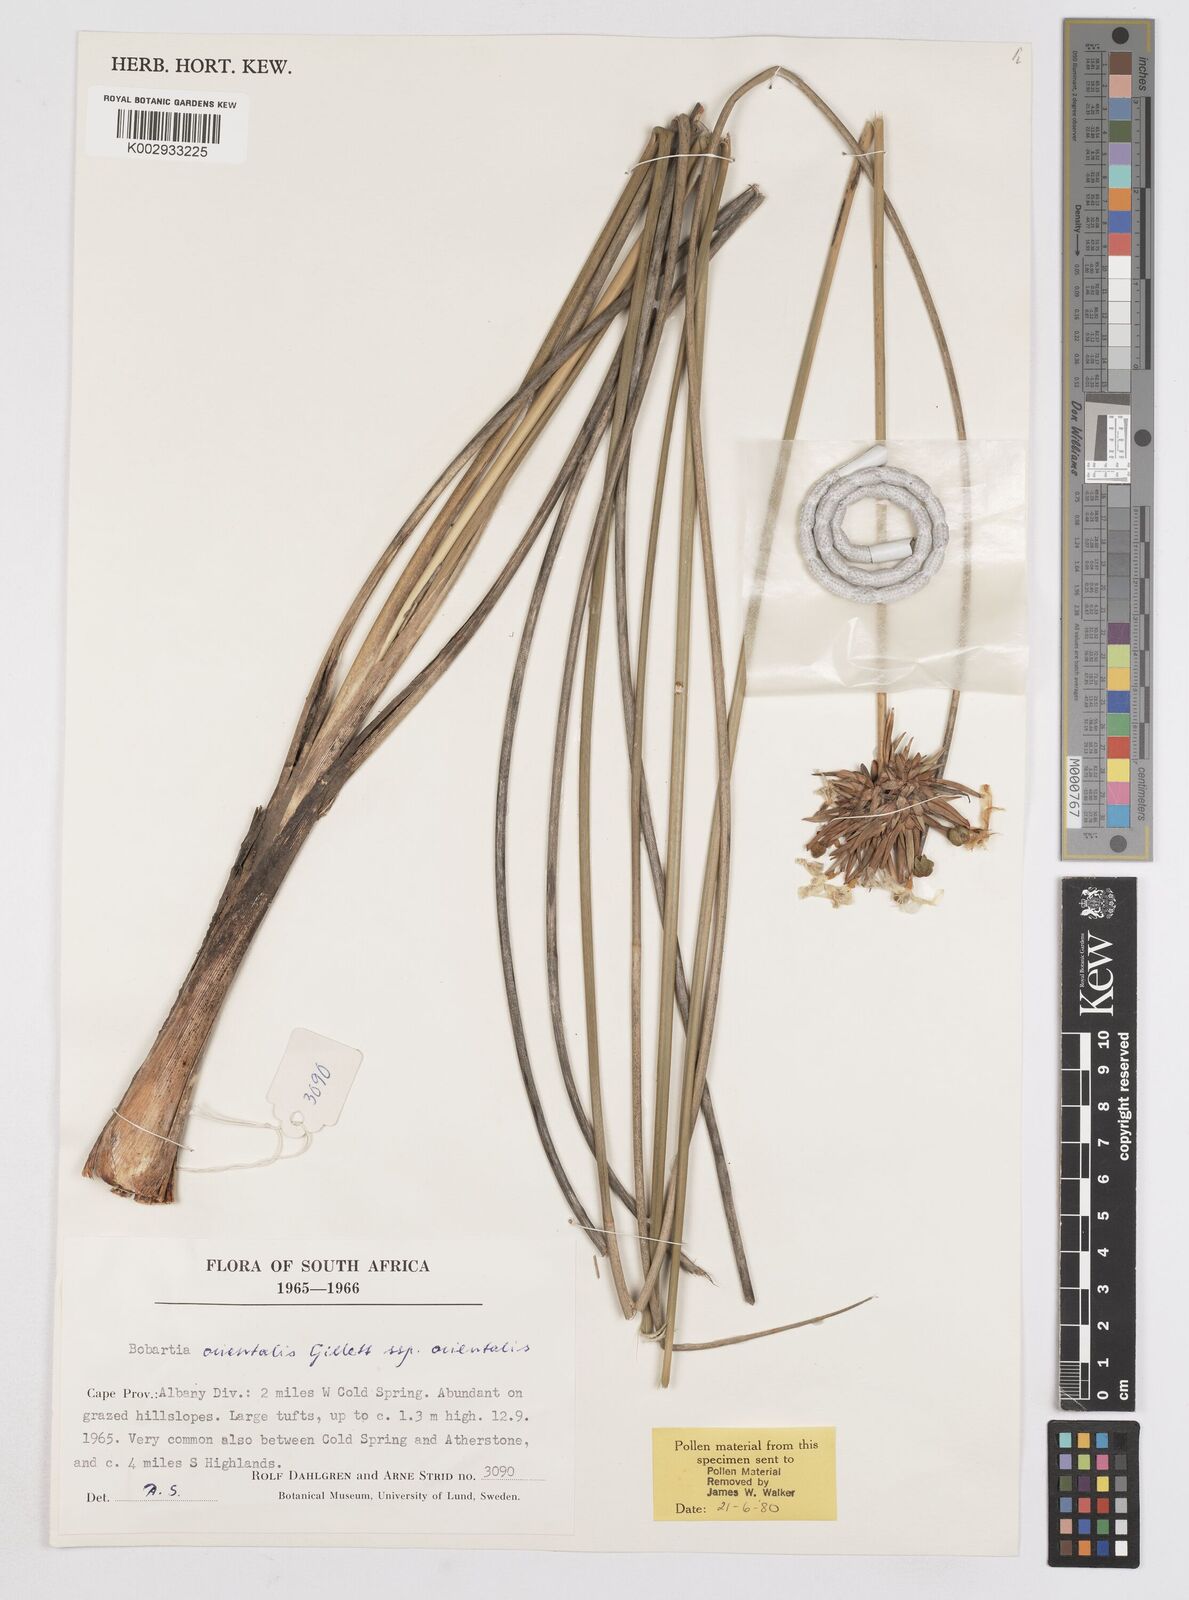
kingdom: Plantae
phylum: Tracheophyta
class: Liliopsida
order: Asparagales
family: Iridaceae
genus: Bobartia
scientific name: Bobartia orientalis
